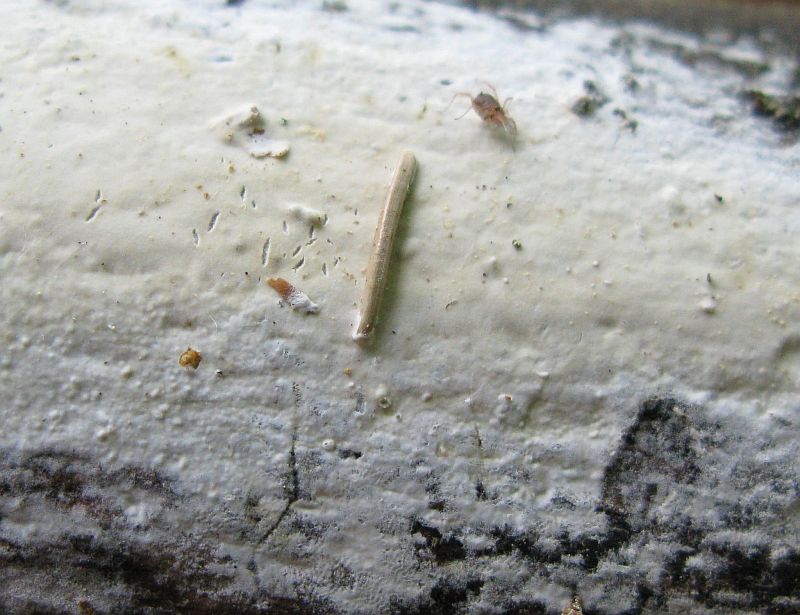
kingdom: Fungi
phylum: Basidiomycota
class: Agaricomycetes
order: Polyporales
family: Phanerochaetaceae
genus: Phanerochaete
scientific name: Phanerochaete sordida
